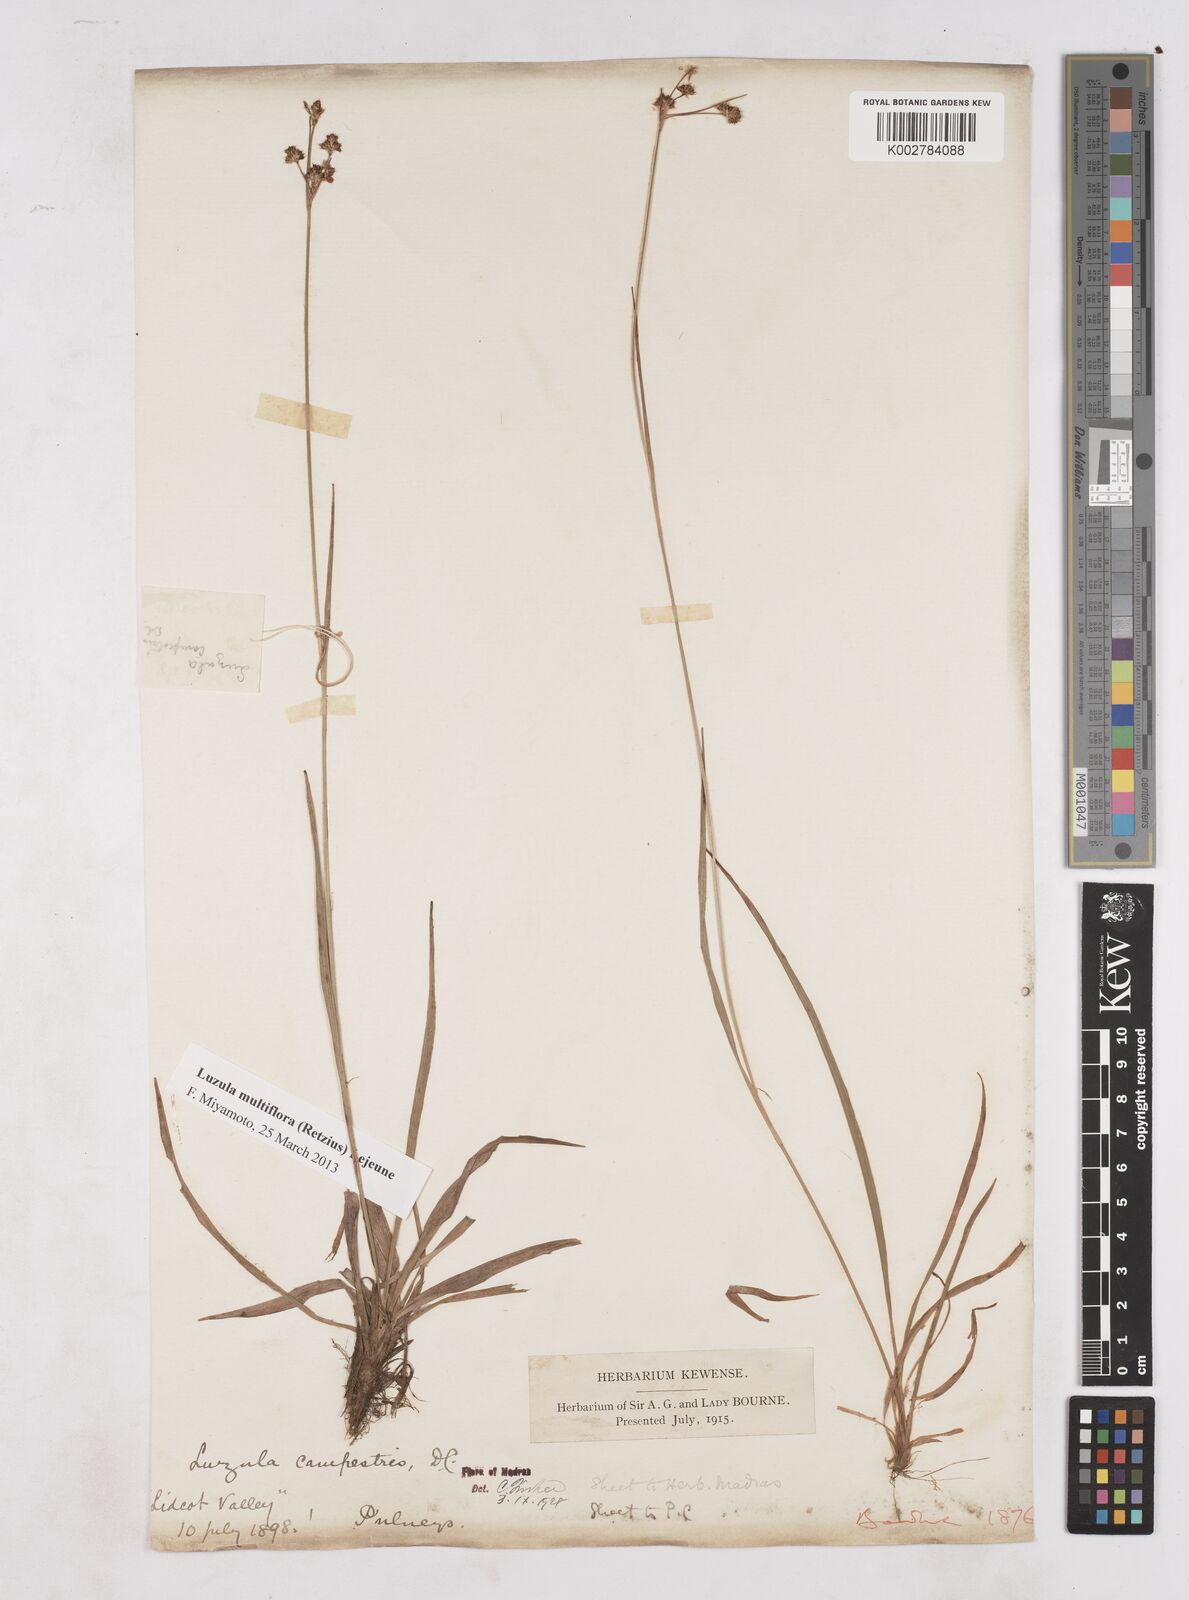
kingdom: Plantae
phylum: Tracheophyta
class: Liliopsida
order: Poales
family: Juncaceae
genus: Luzula
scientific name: Luzula campestris
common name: Field wood-rush
